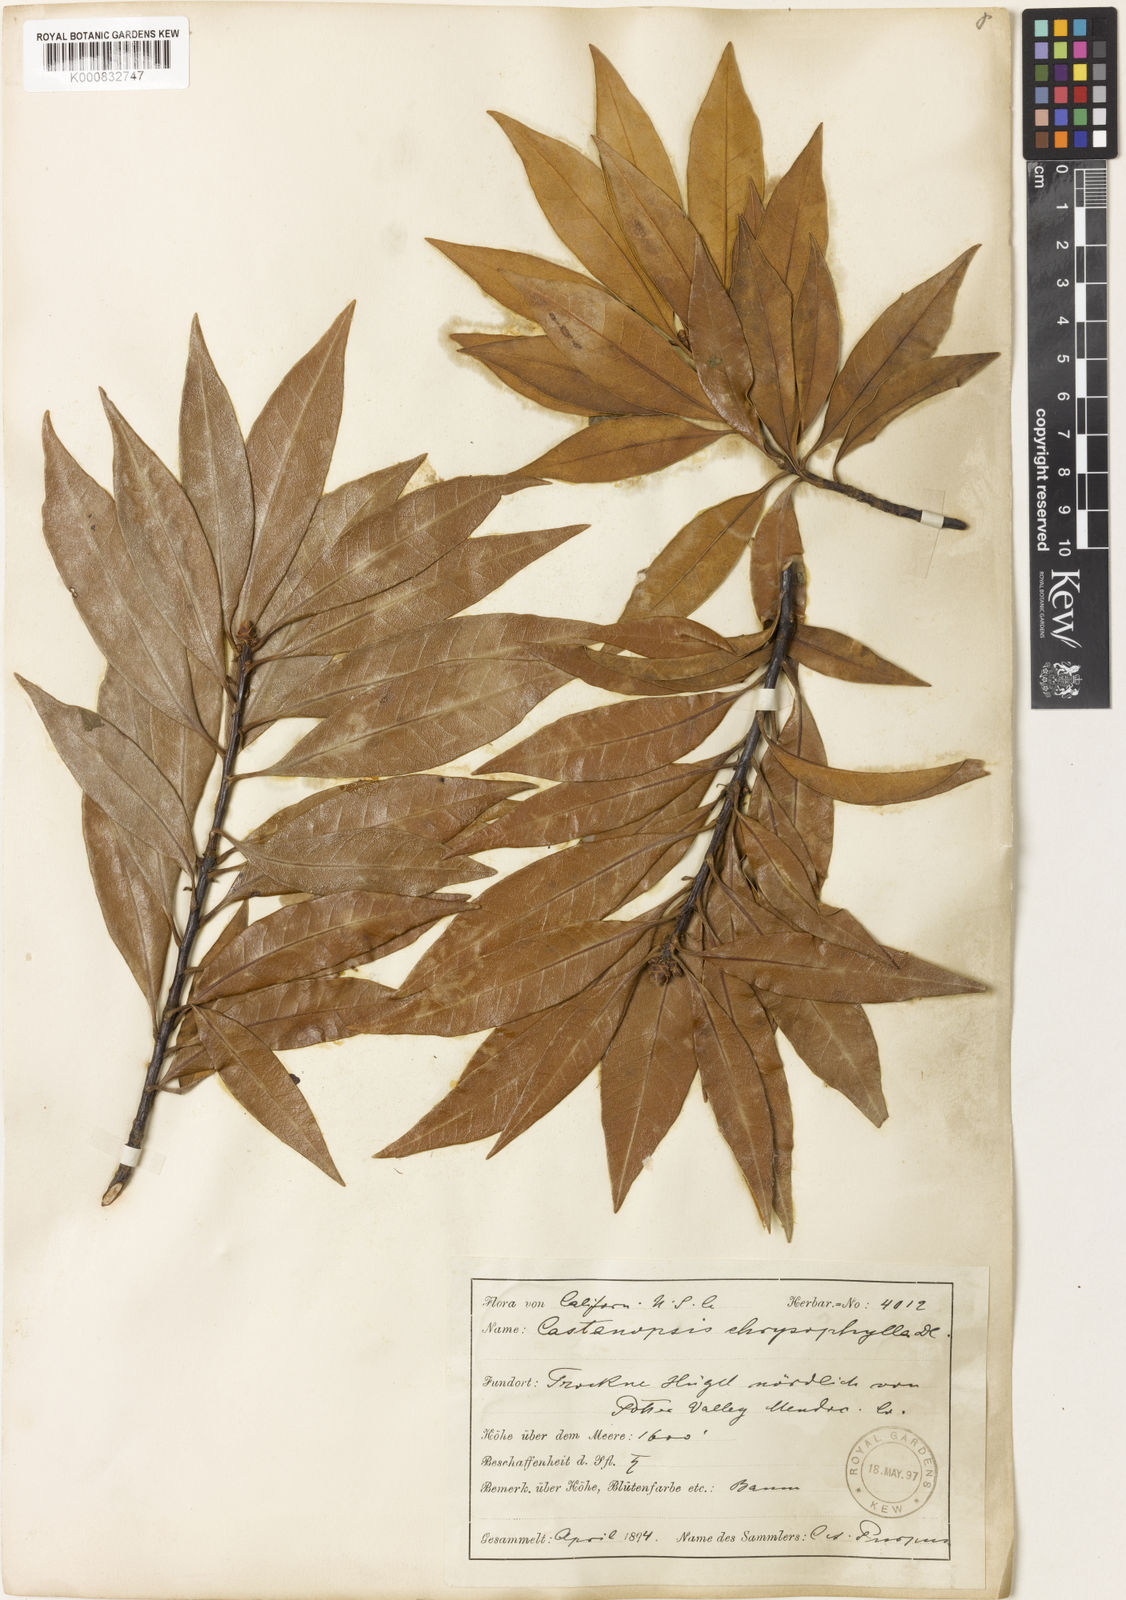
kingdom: Plantae
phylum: Tracheophyta
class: Magnoliopsida
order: Fagales
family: Fagaceae
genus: Chrysolepis
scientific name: Chrysolepis chrysophylla
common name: Giant chinquapin
